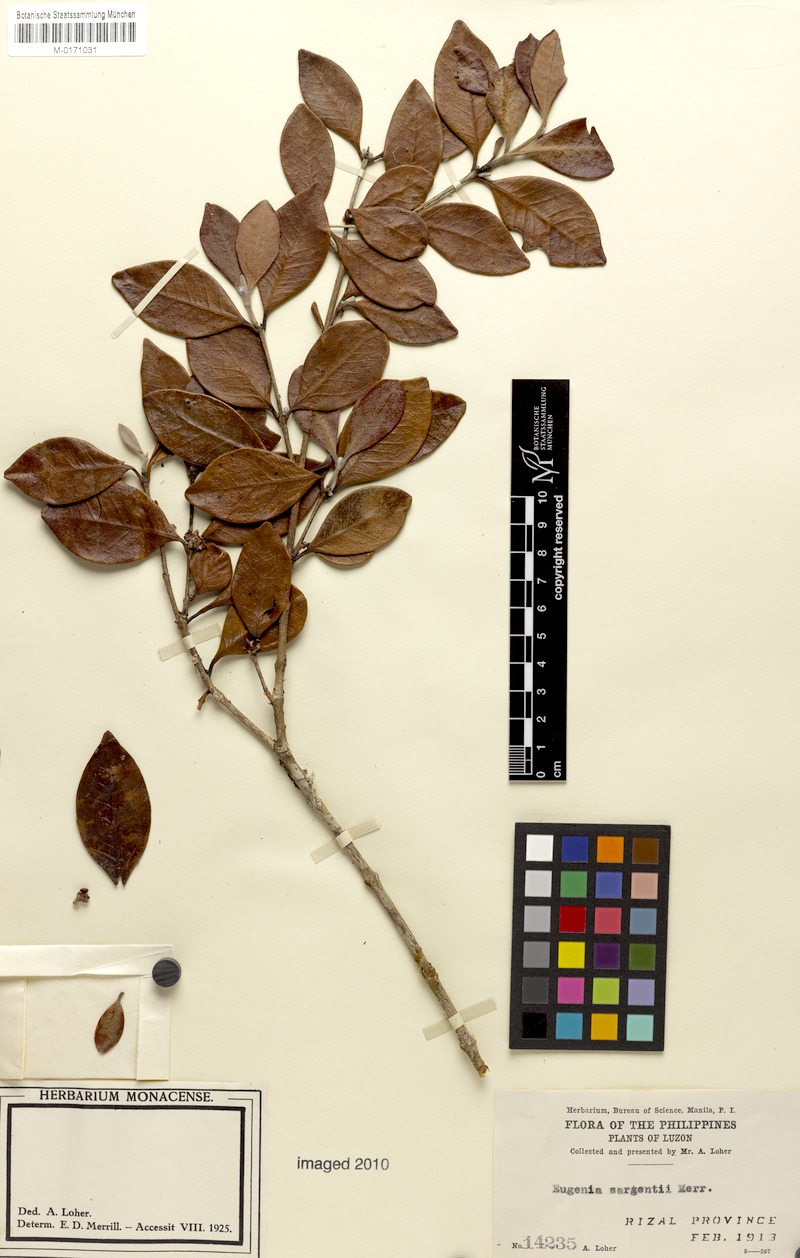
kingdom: Plantae
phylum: Tracheophyta
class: Magnoliopsida
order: Myrtales
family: Myrtaceae
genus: Eugenia
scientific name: Eugenia sargentii
